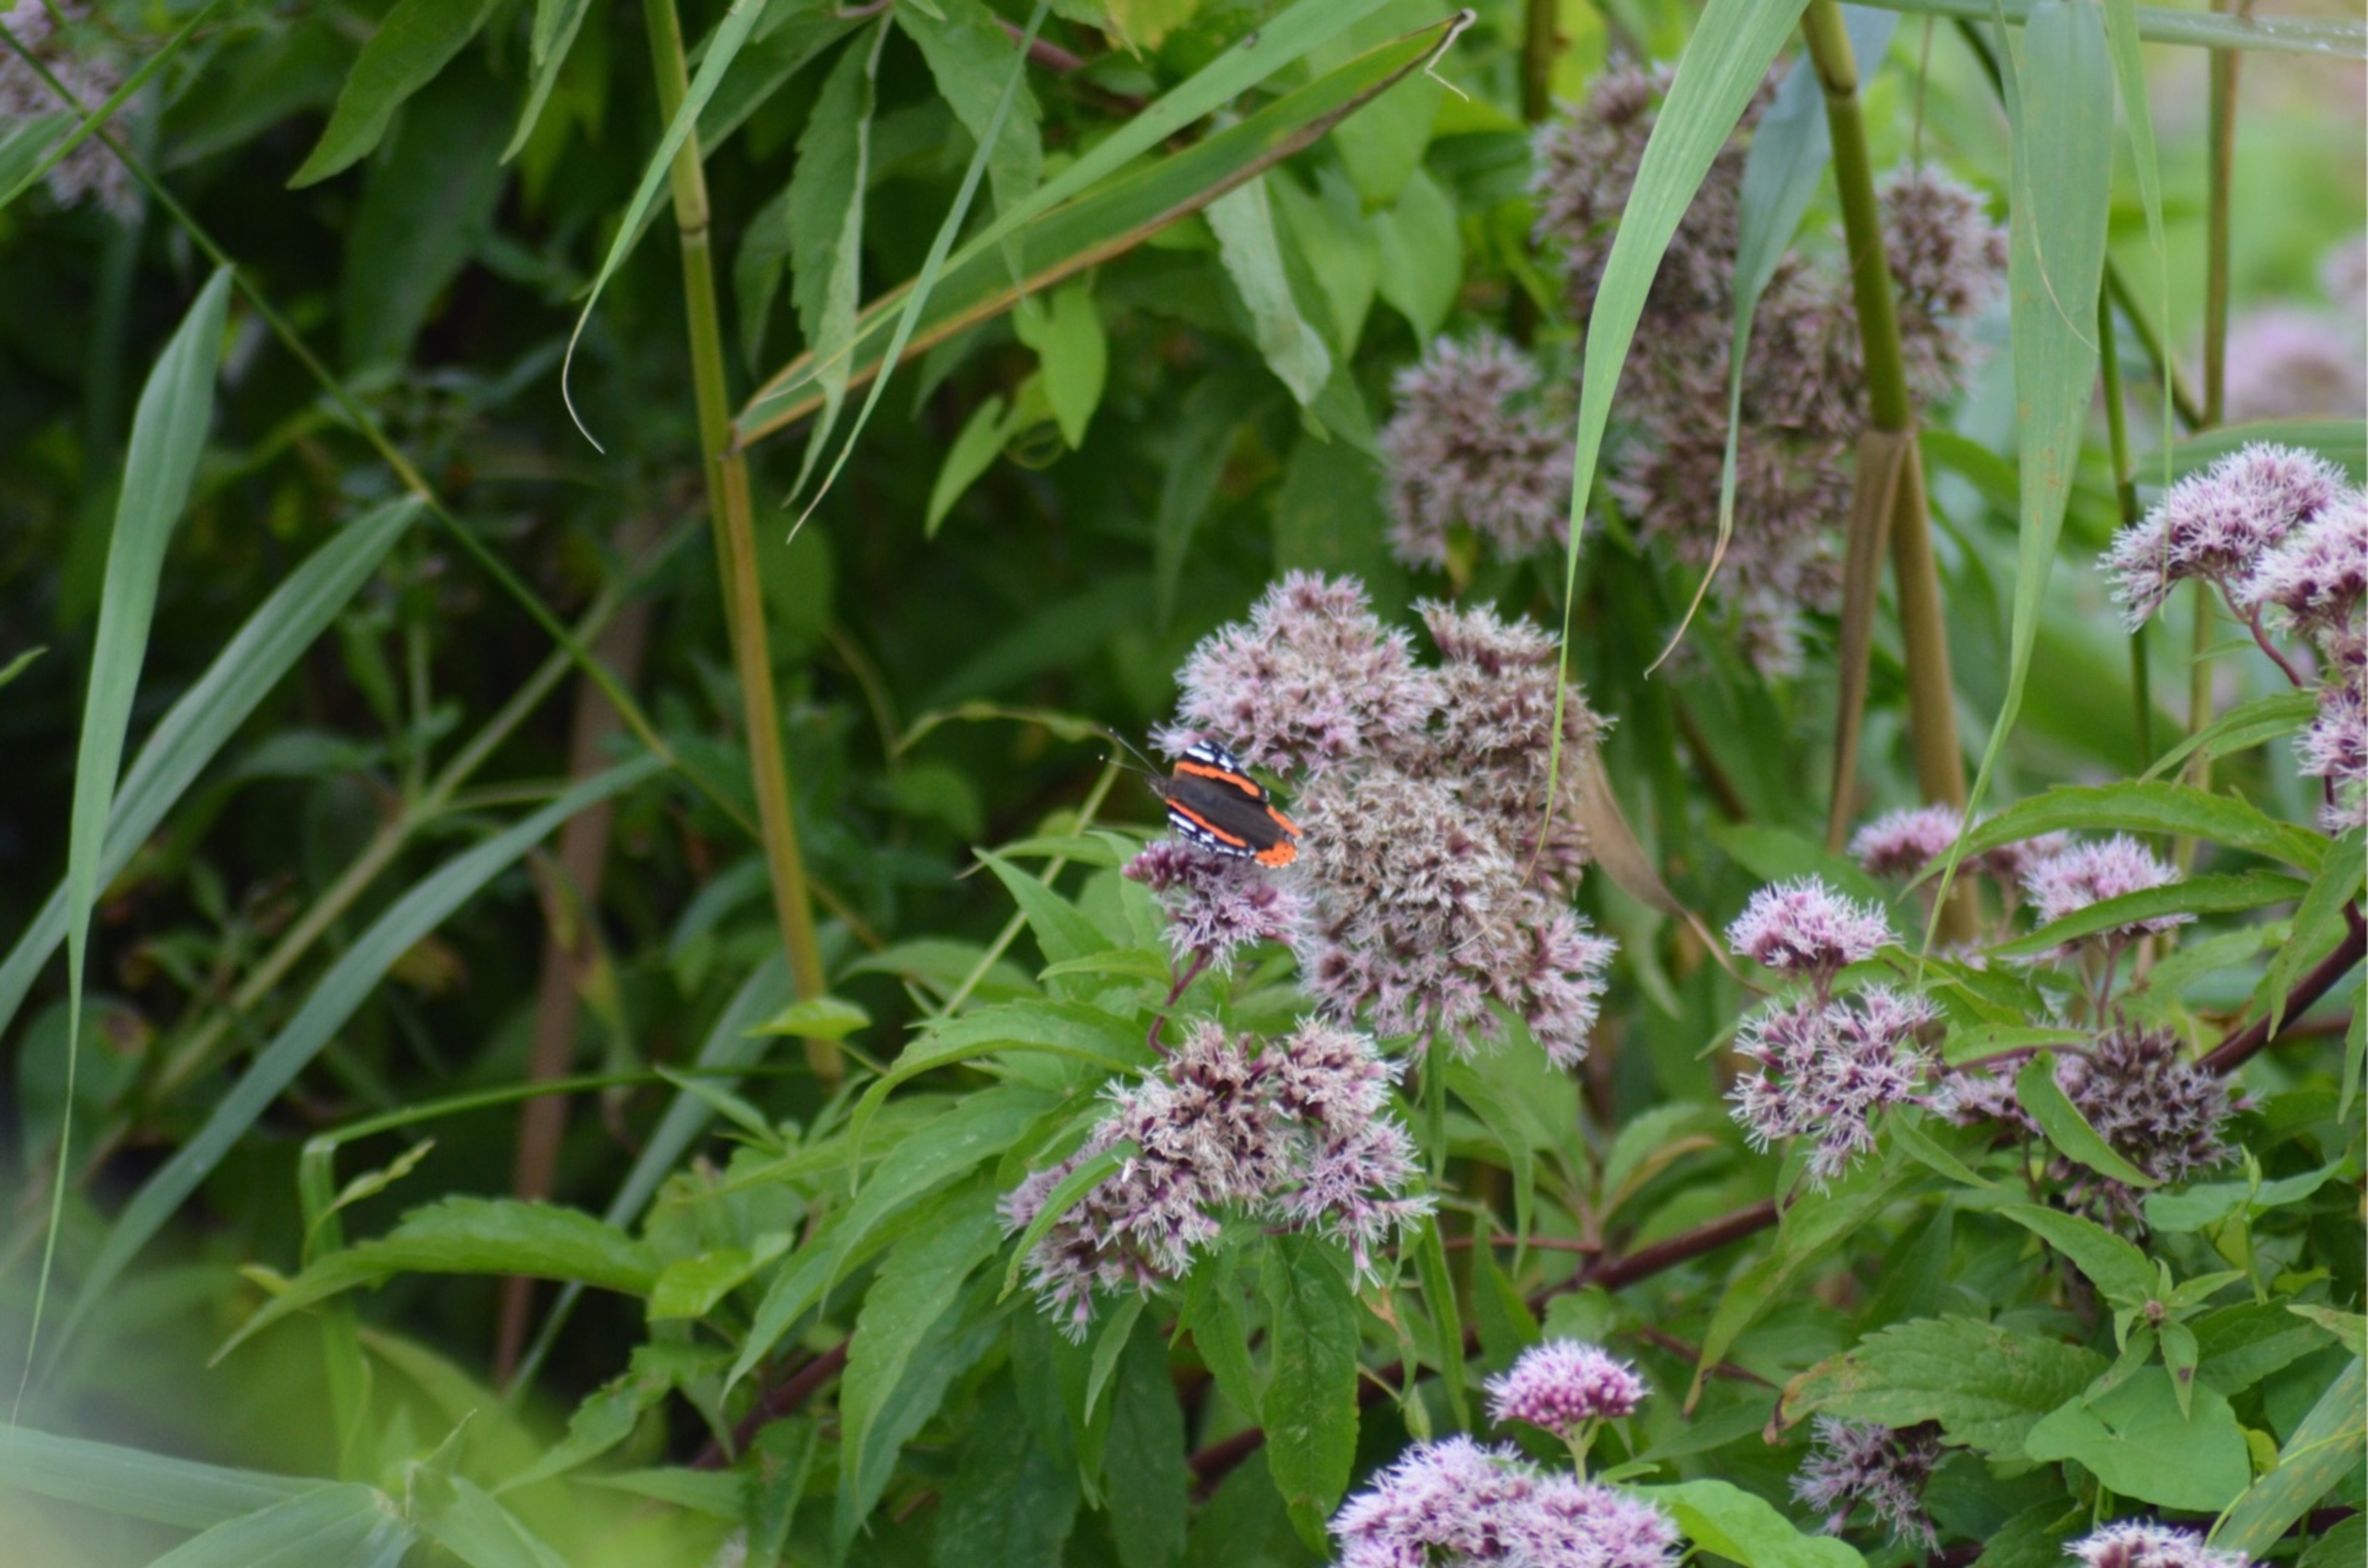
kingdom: Animalia
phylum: Arthropoda
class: Insecta
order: Lepidoptera
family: Nymphalidae
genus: Vanessa
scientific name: Vanessa atalanta
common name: Admiral
